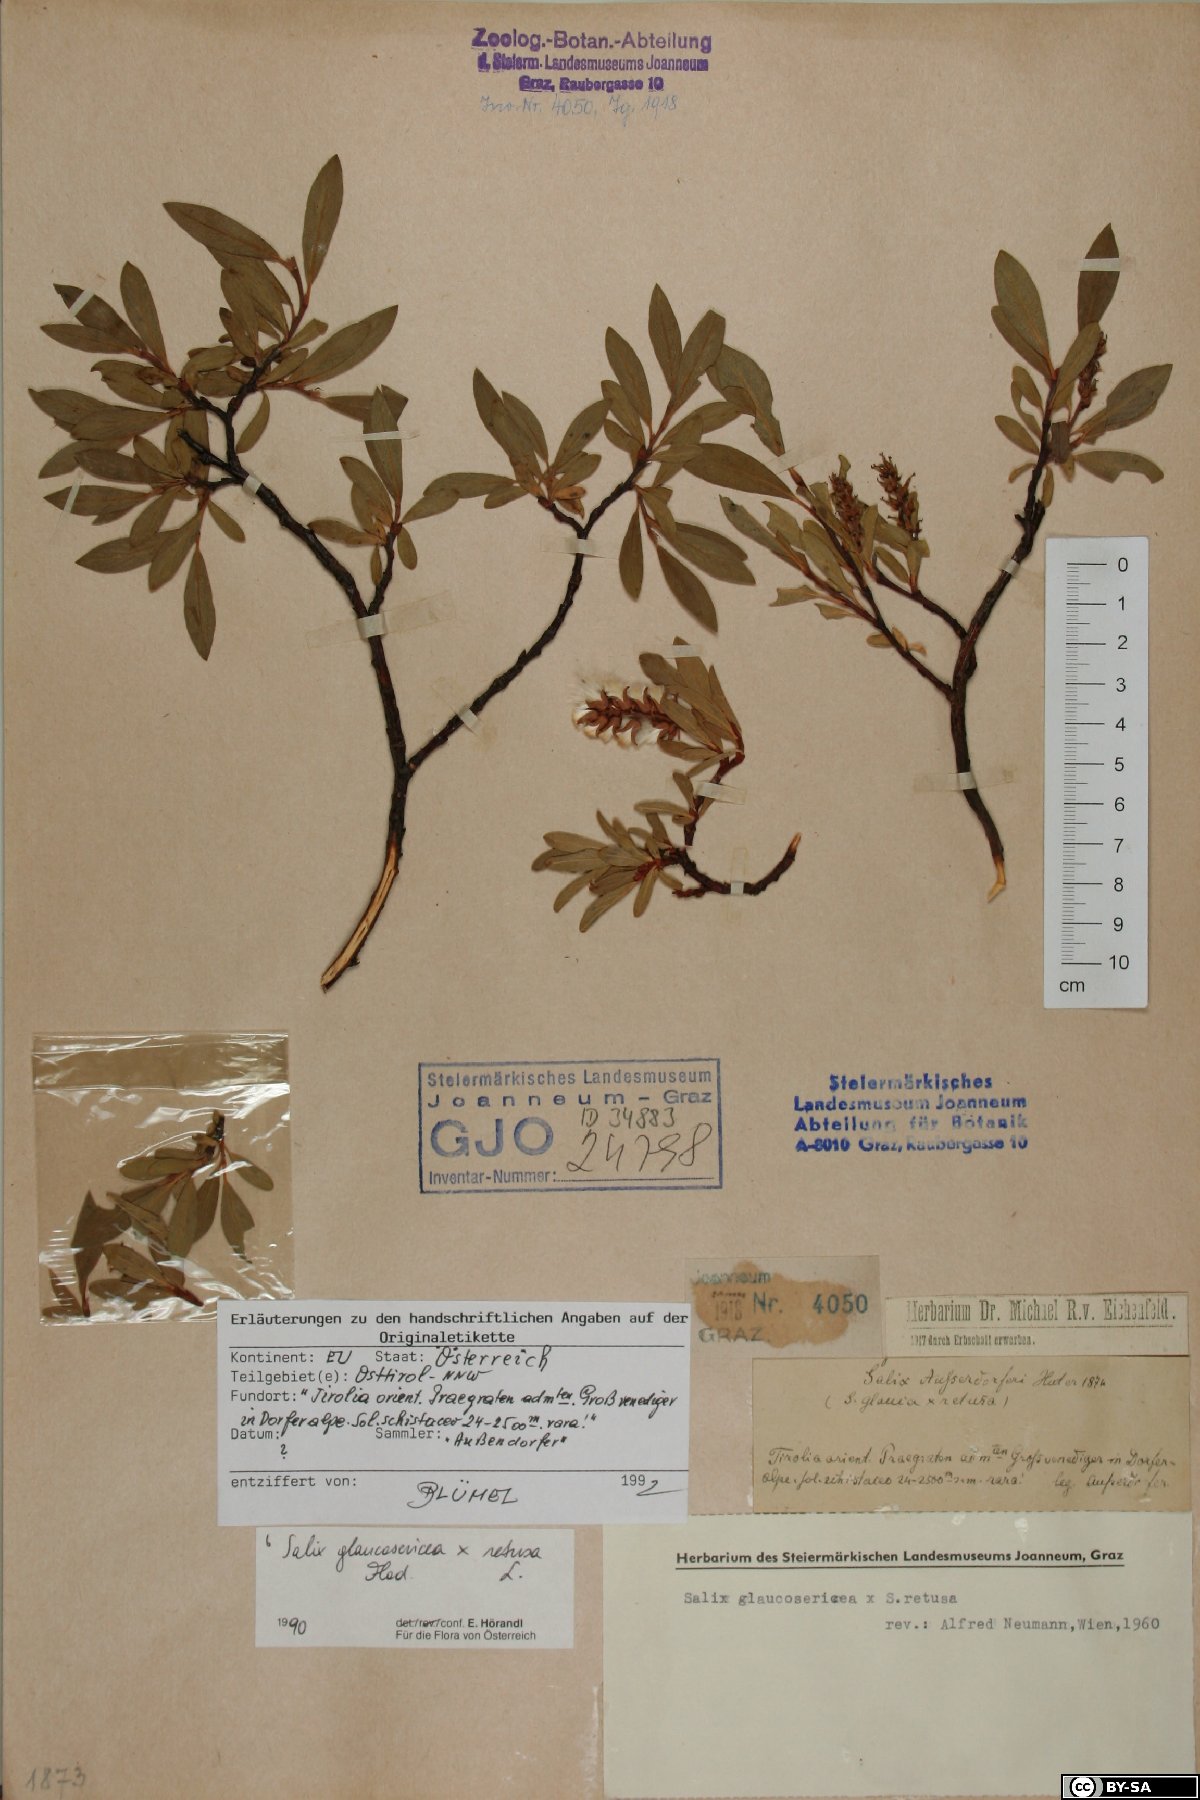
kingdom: Plantae
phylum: Tracheophyta
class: Magnoliopsida
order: Malpighiales
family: Salicaceae
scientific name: Salicaceae
